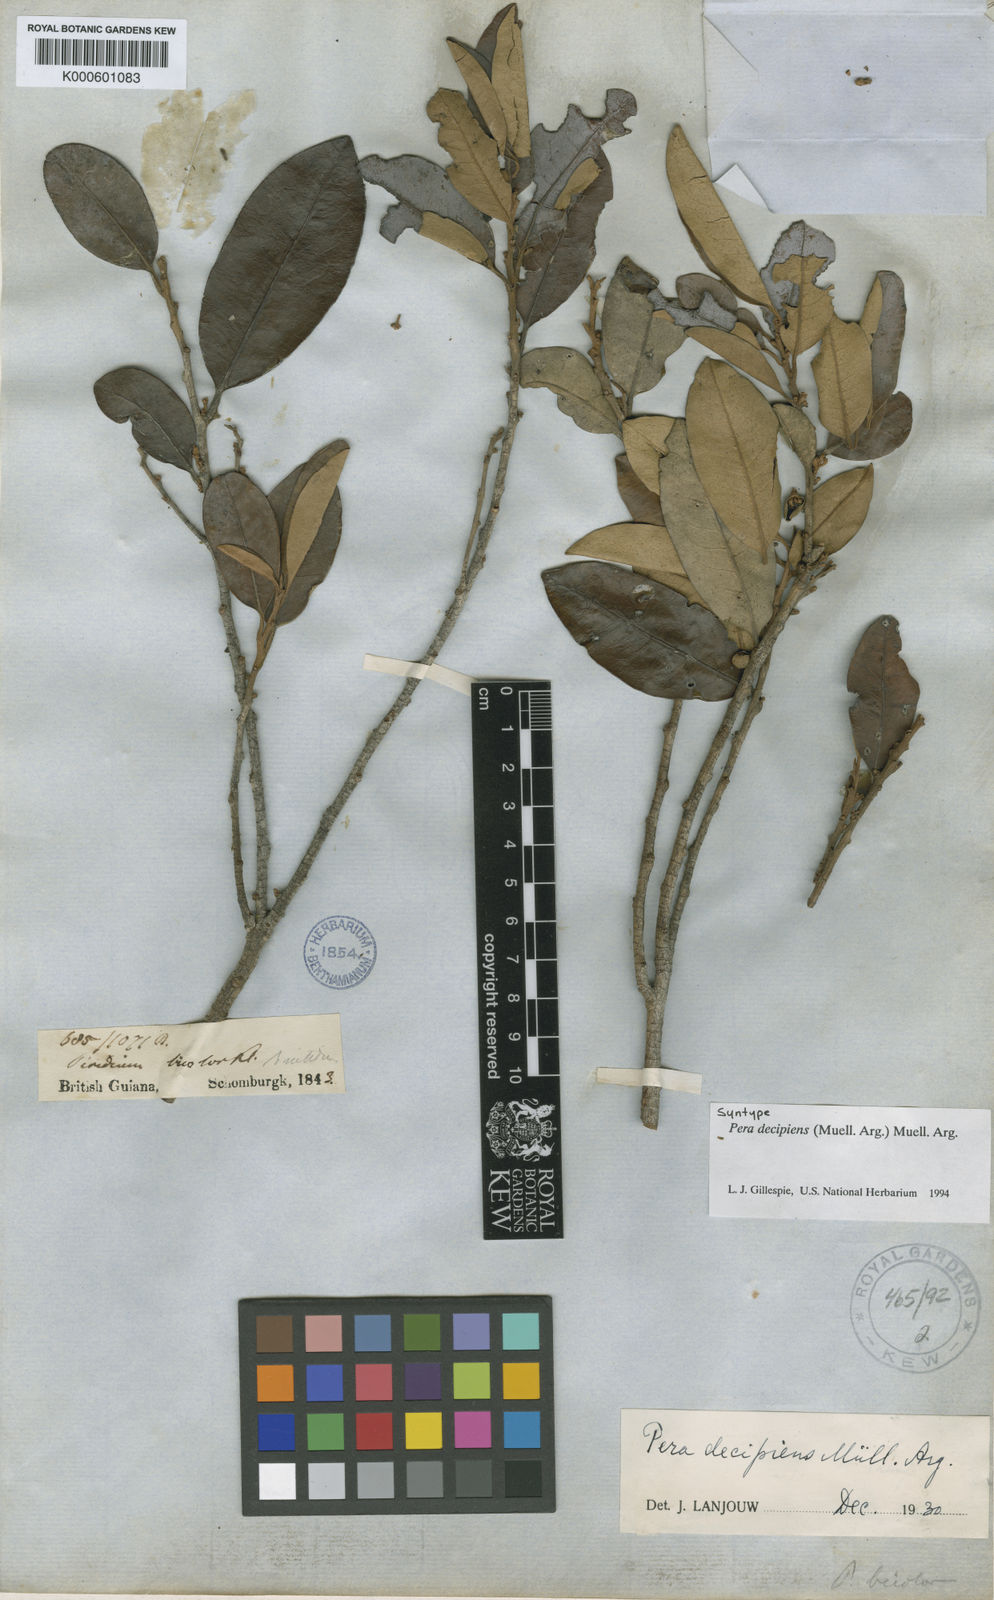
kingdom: Plantae
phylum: Tracheophyta
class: Magnoliopsida
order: Malpighiales
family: Peraceae
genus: Pera
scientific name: Pera
